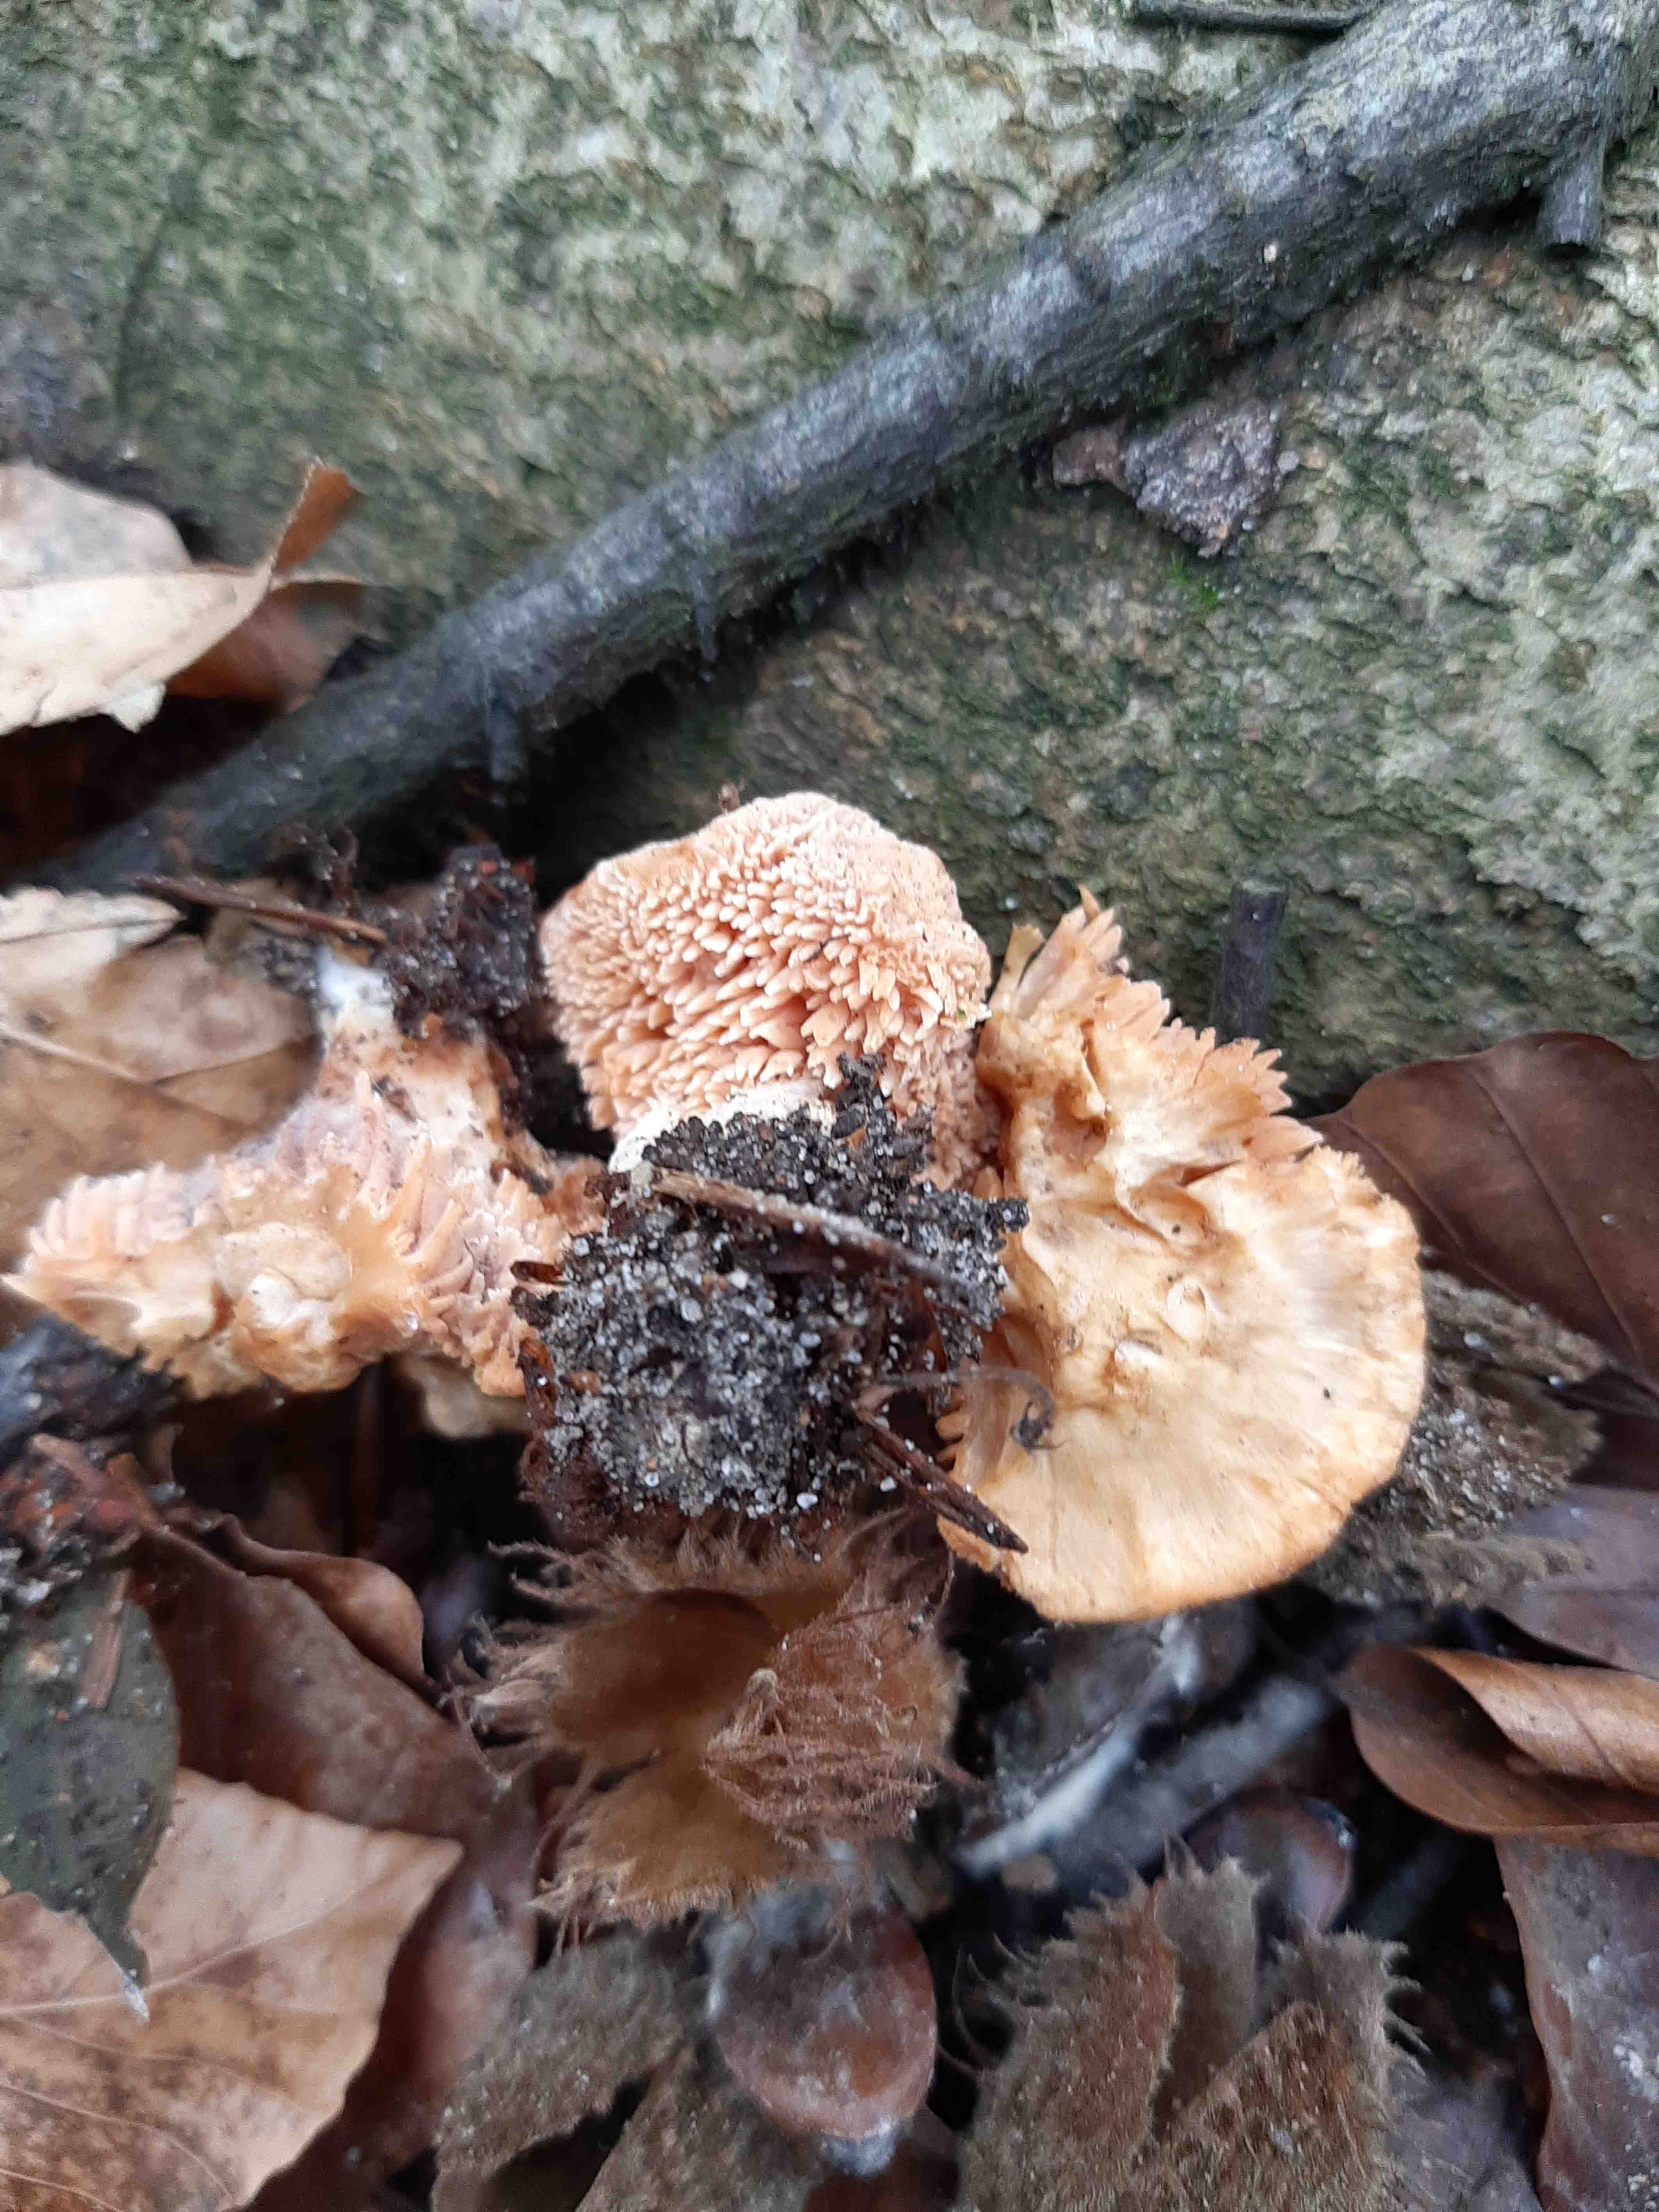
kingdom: Fungi
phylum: Basidiomycota
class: Agaricomycetes
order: Cantharellales
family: Hydnaceae
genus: Hydnum
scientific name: Hydnum
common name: pigsvamp
